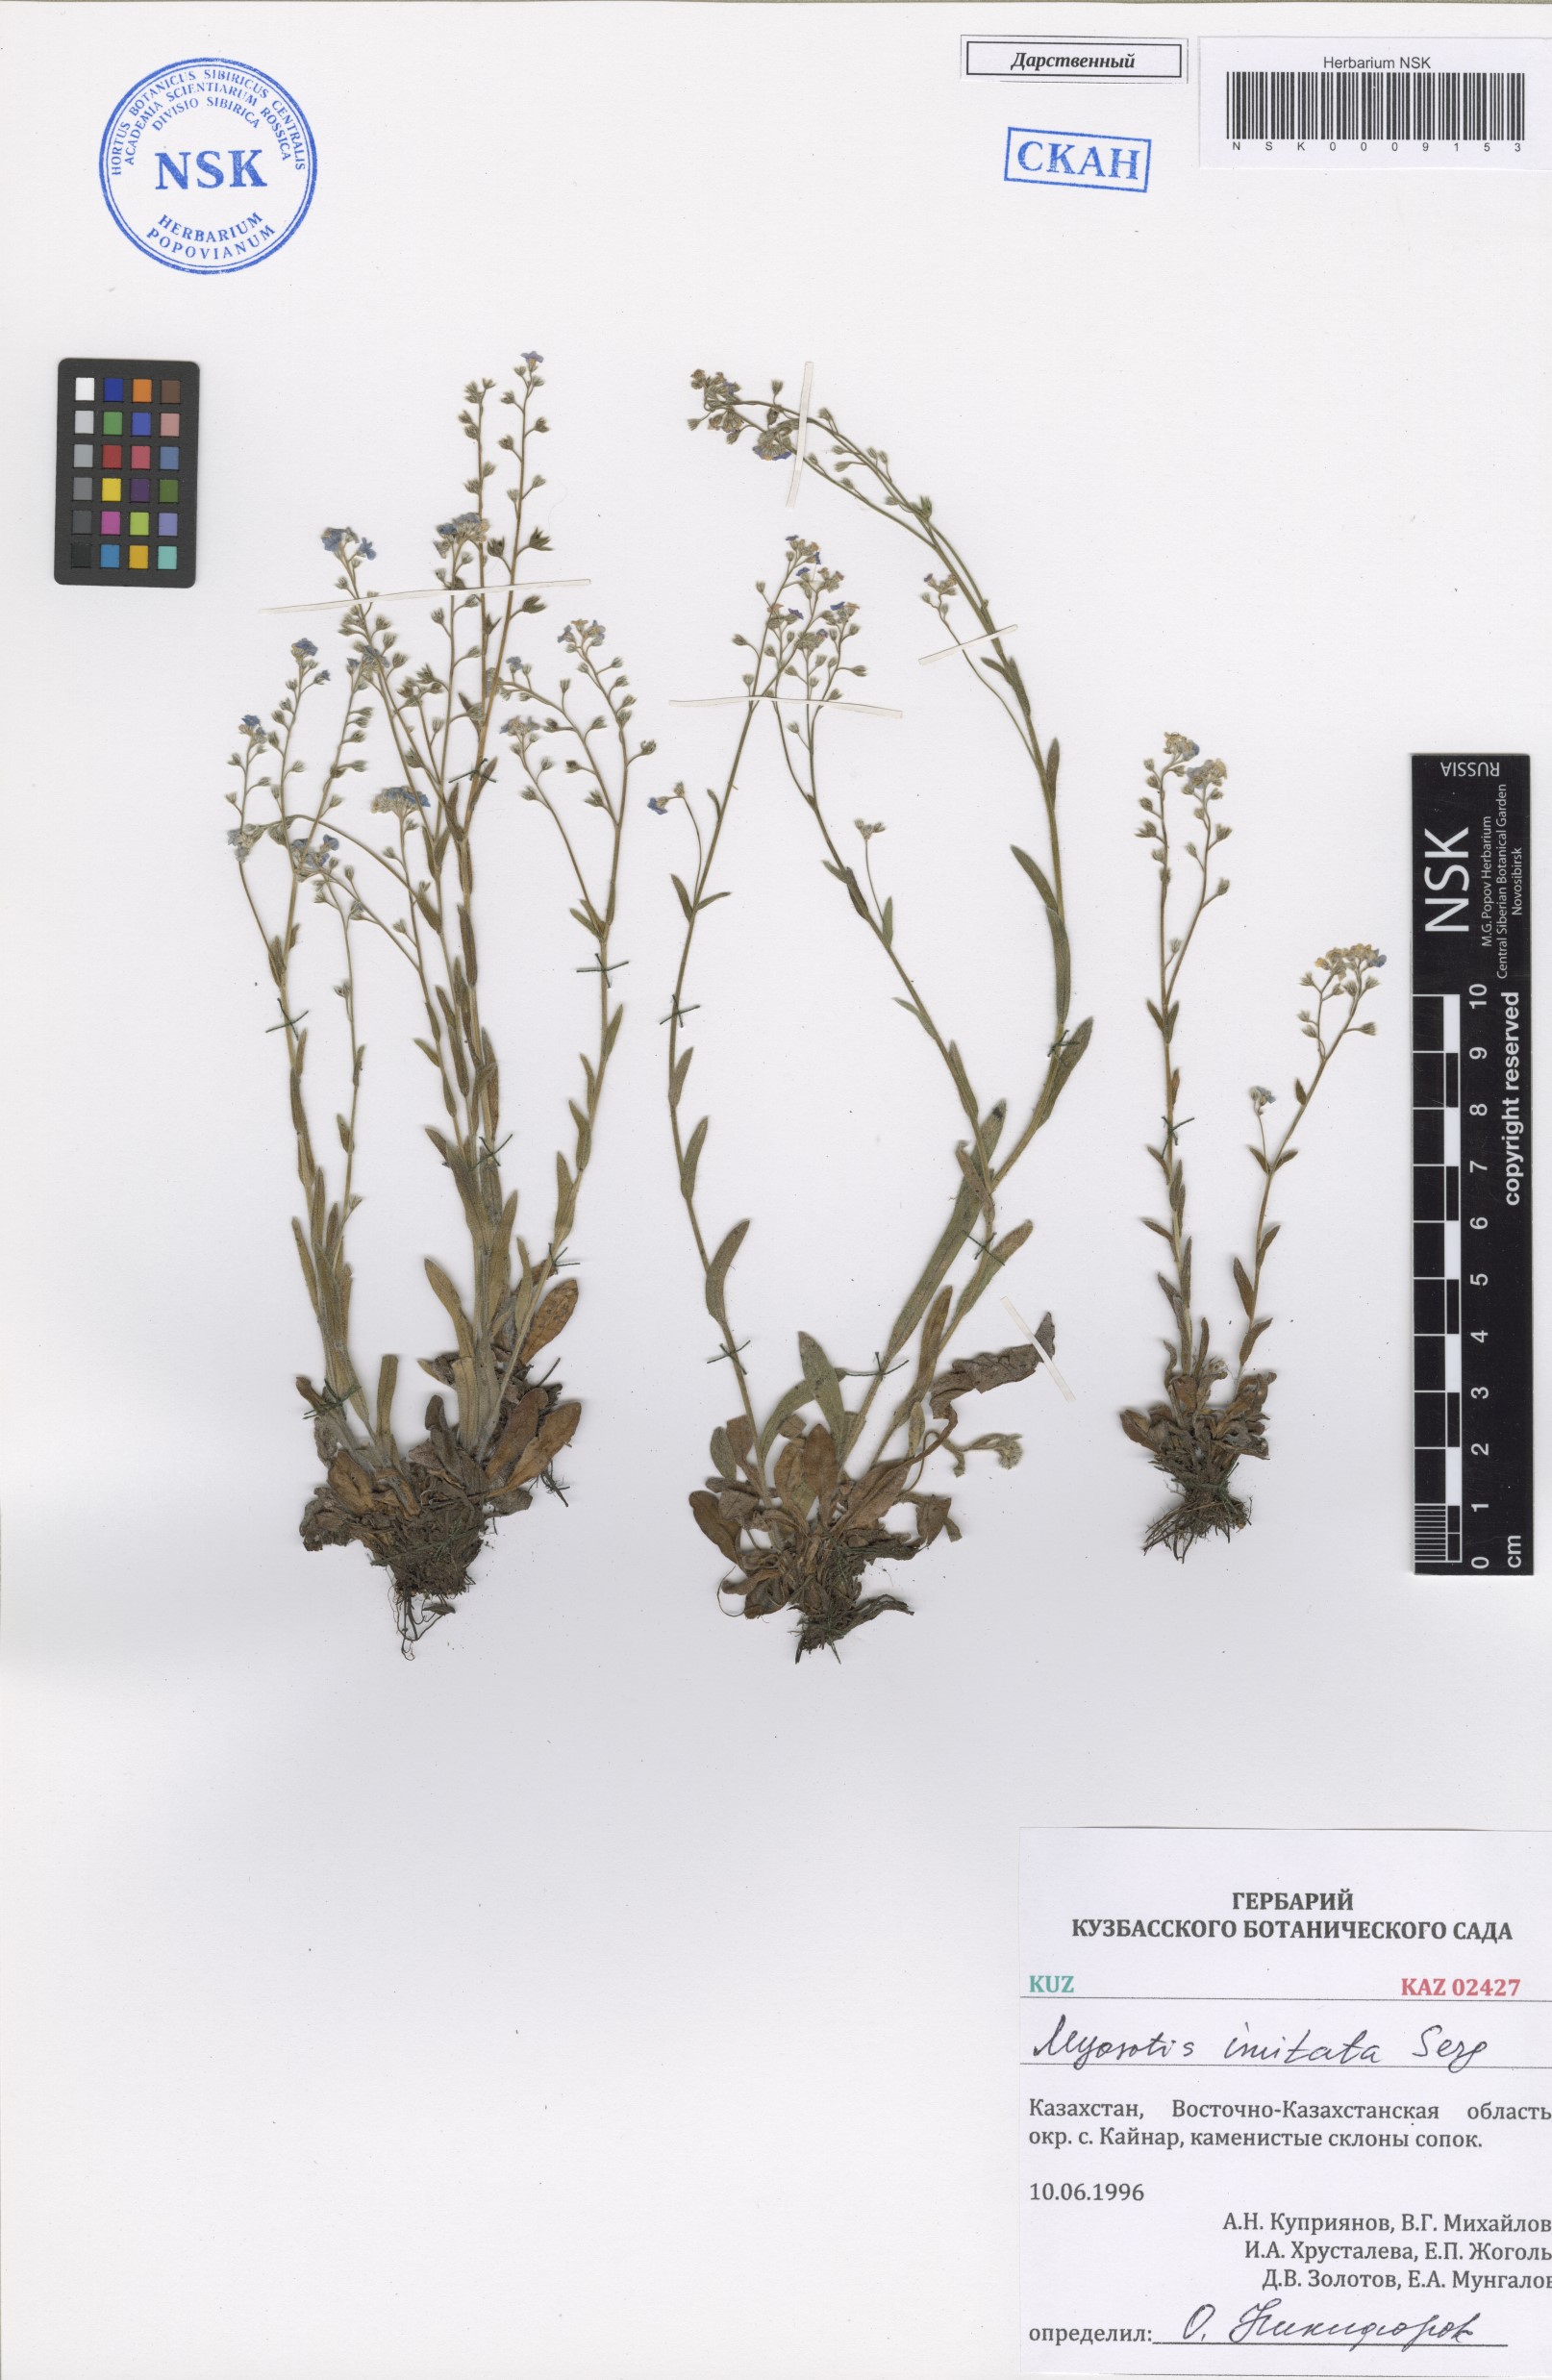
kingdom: Plantae
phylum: Tracheophyta
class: Magnoliopsida
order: Boraginales
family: Boraginaceae
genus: Myosotis
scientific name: Myosotis imitata
